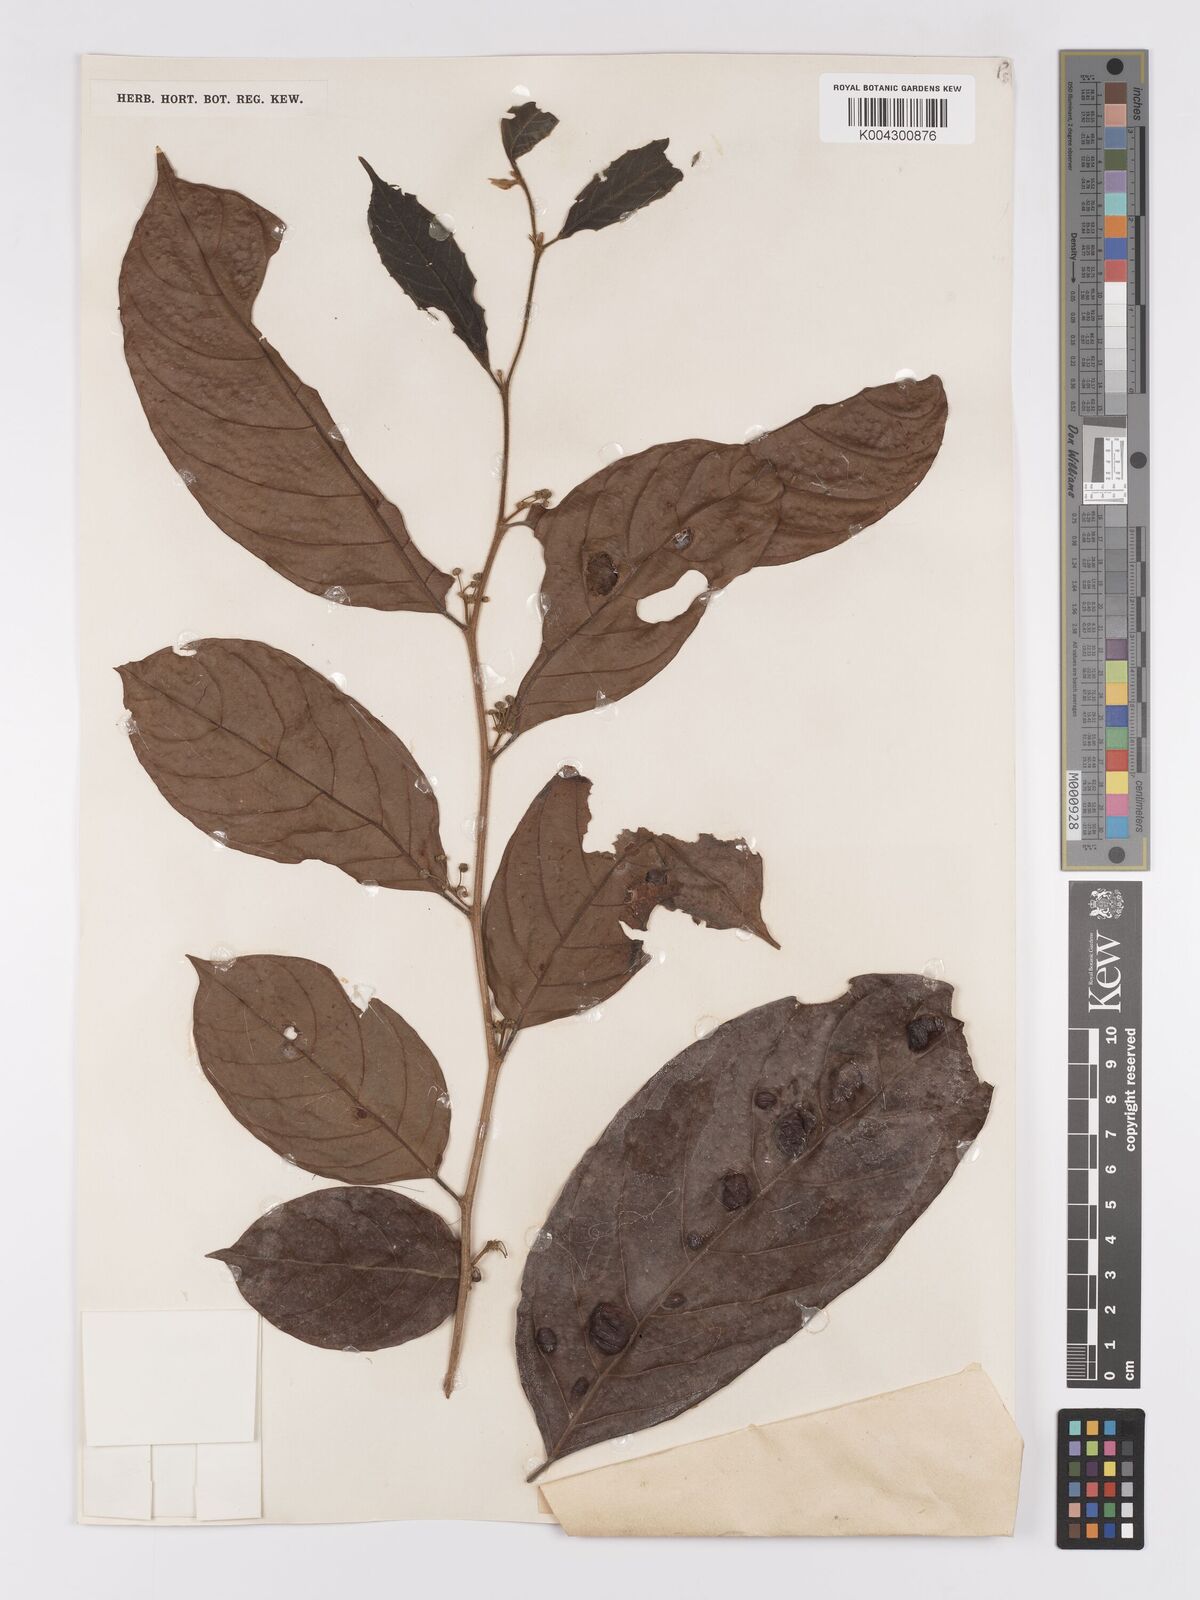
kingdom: Plantae
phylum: Tracheophyta
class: Magnoliopsida
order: Malpighiales
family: Achariaceae
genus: Hydnocarpus
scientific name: Hydnocarpus subfalcatus
